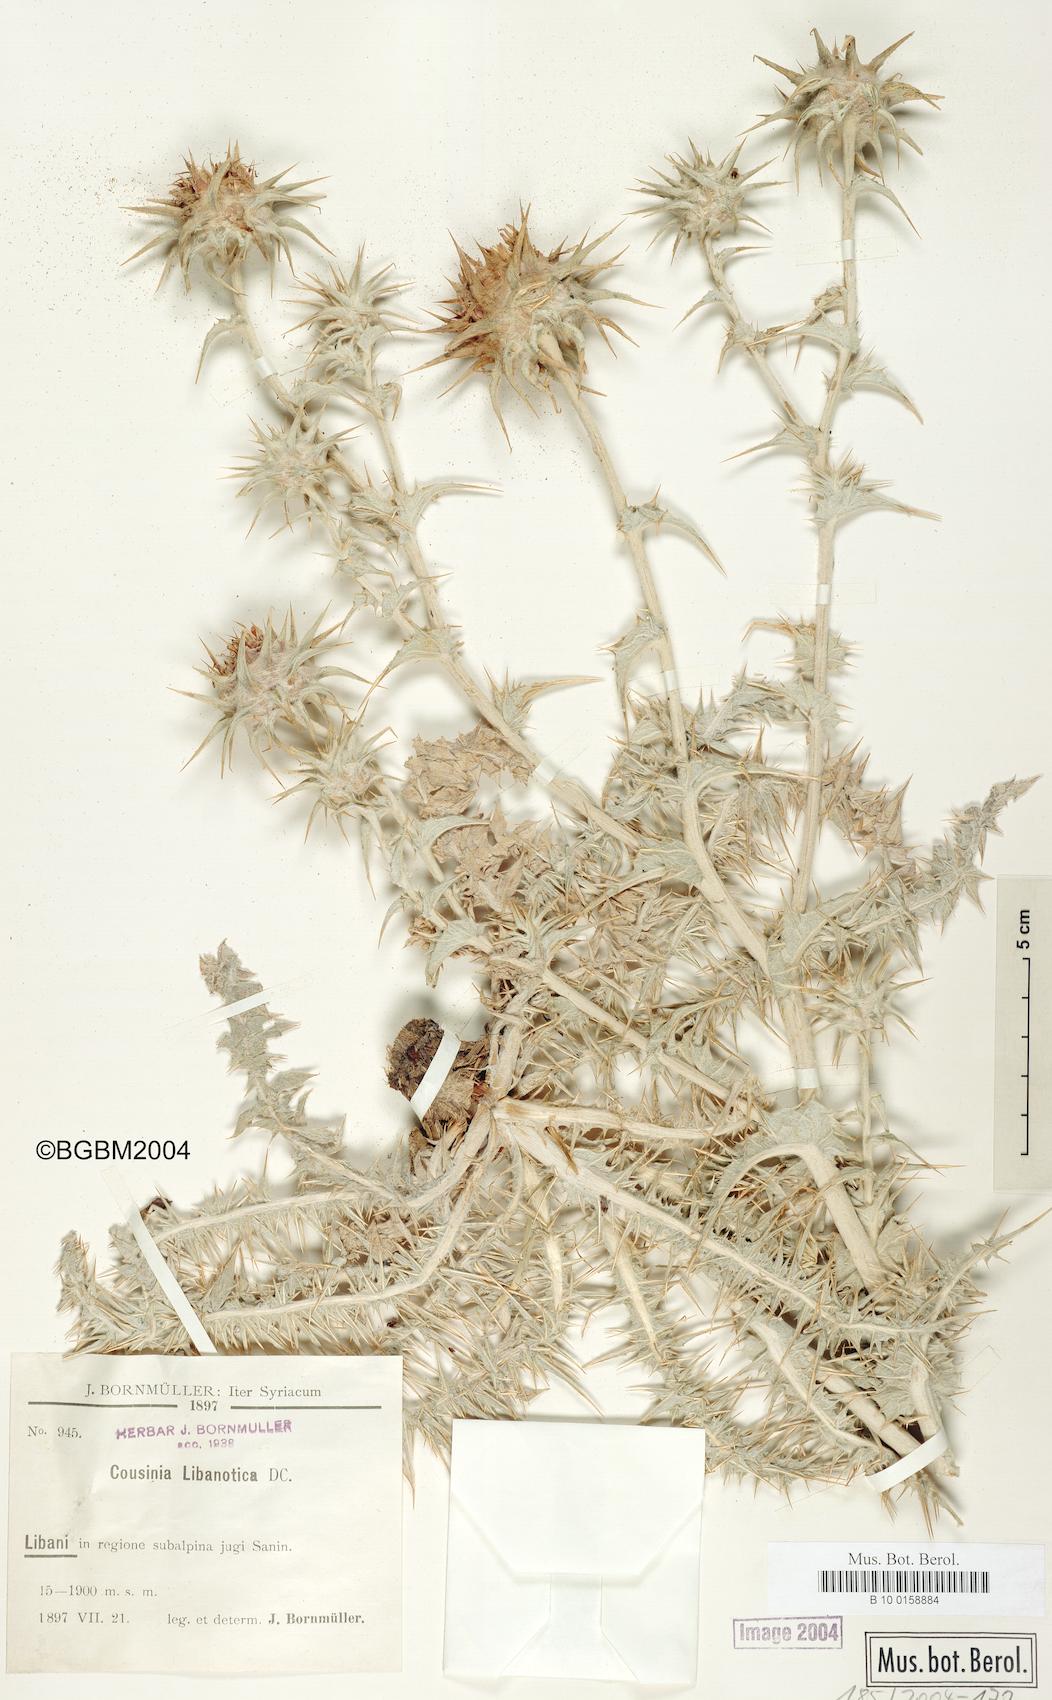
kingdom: Plantae
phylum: Tracheophyta
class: Magnoliopsida
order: Asterales
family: Asteraceae
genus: Cousinia
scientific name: Cousinia libanotica
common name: Lebanon cousinia
